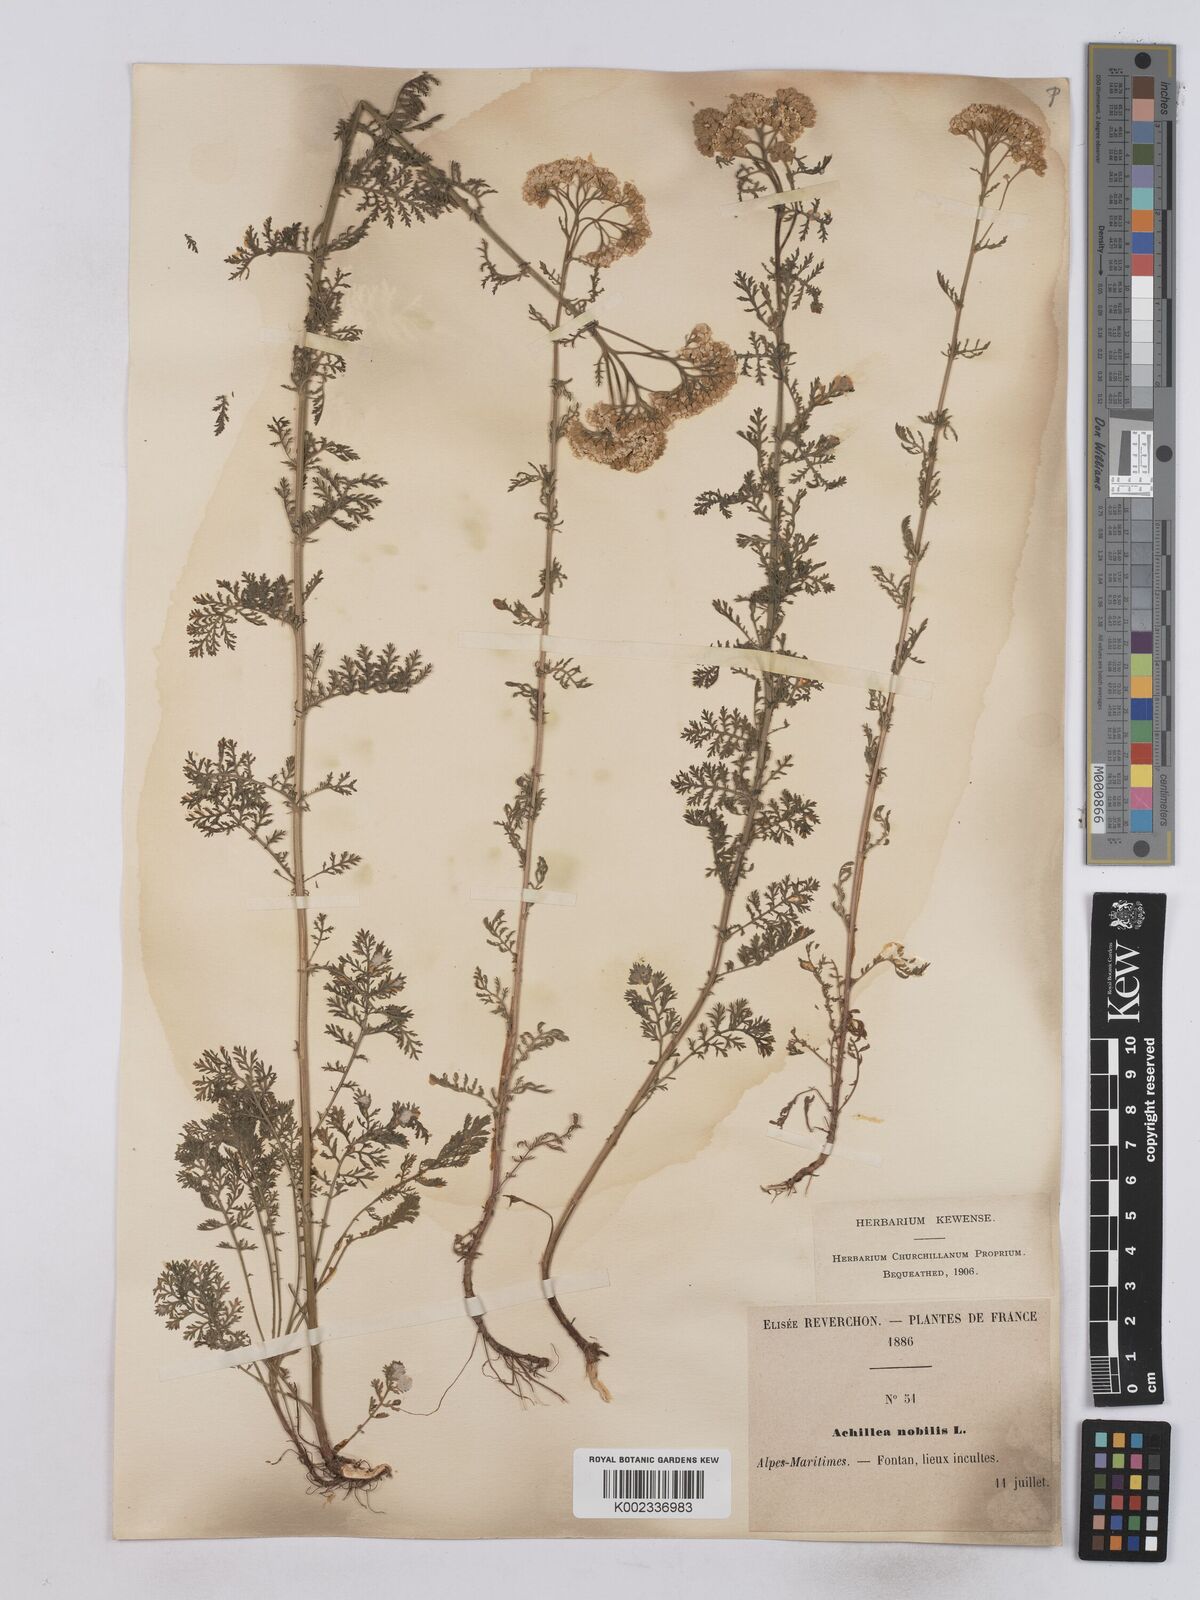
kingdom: Plantae
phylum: Tracheophyta
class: Magnoliopsida
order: Asterales
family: Asteraceae
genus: Achillea
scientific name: Achillea nobilis
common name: Noble yarrow
